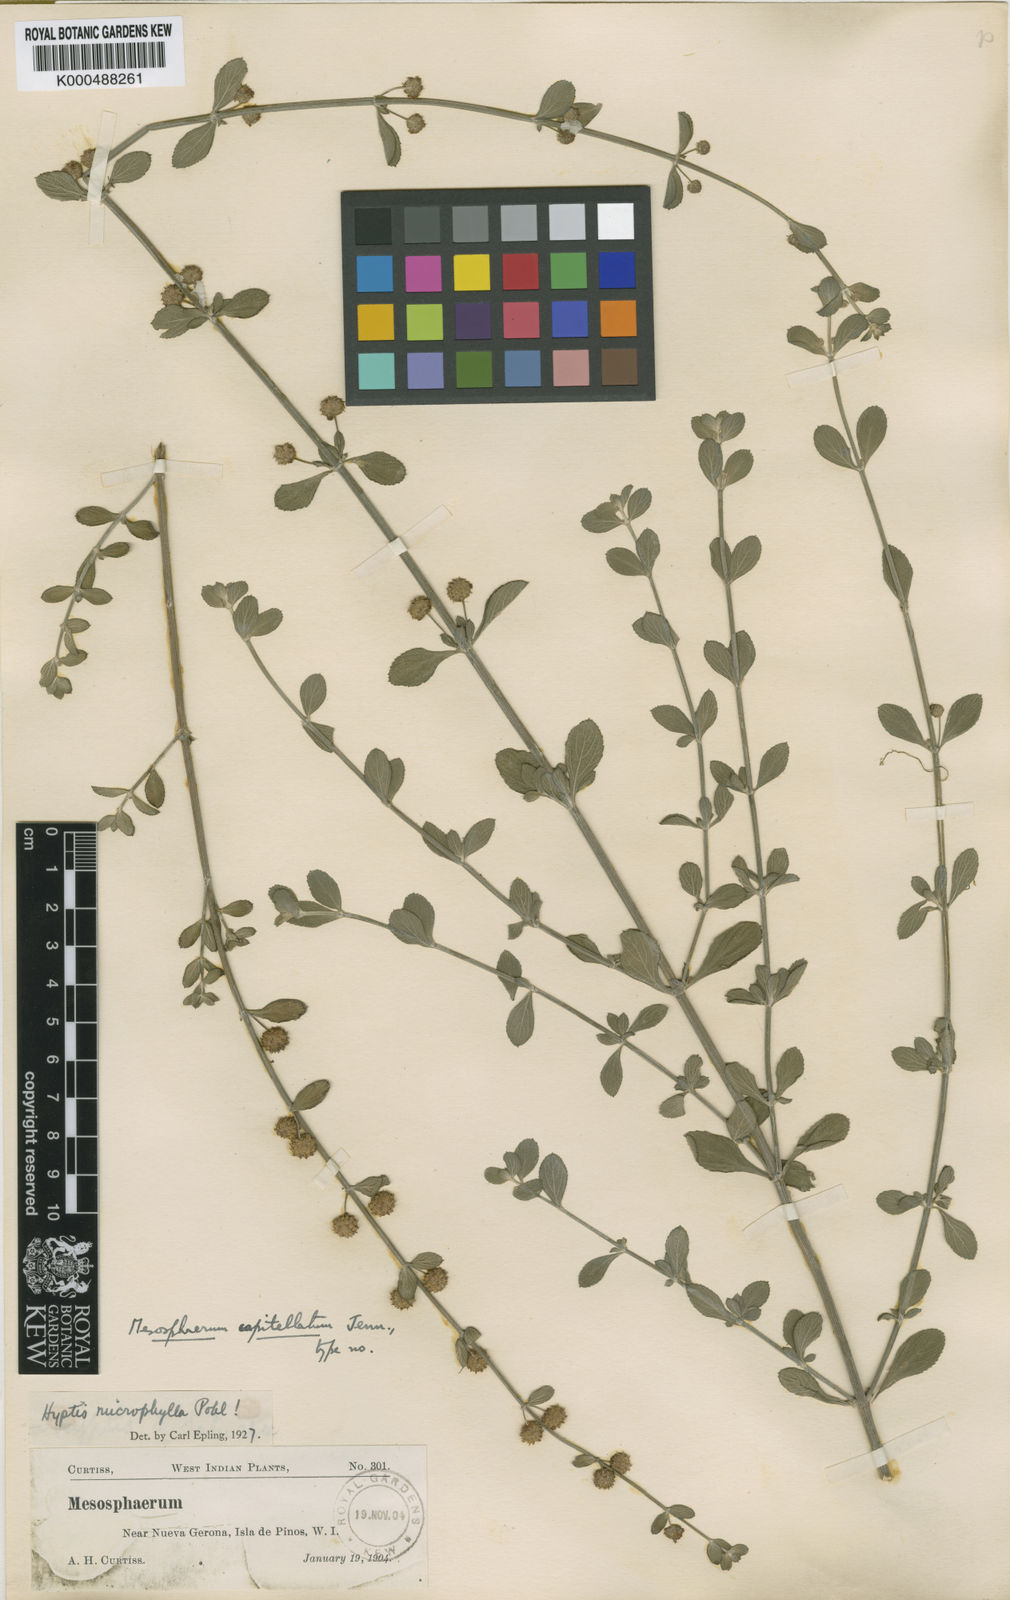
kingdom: Plantae
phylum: Tracheophyta
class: Magnoliopsida
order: Lamiales
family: Lamiaceae
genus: Hyptis
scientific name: Hyptis microphylla
